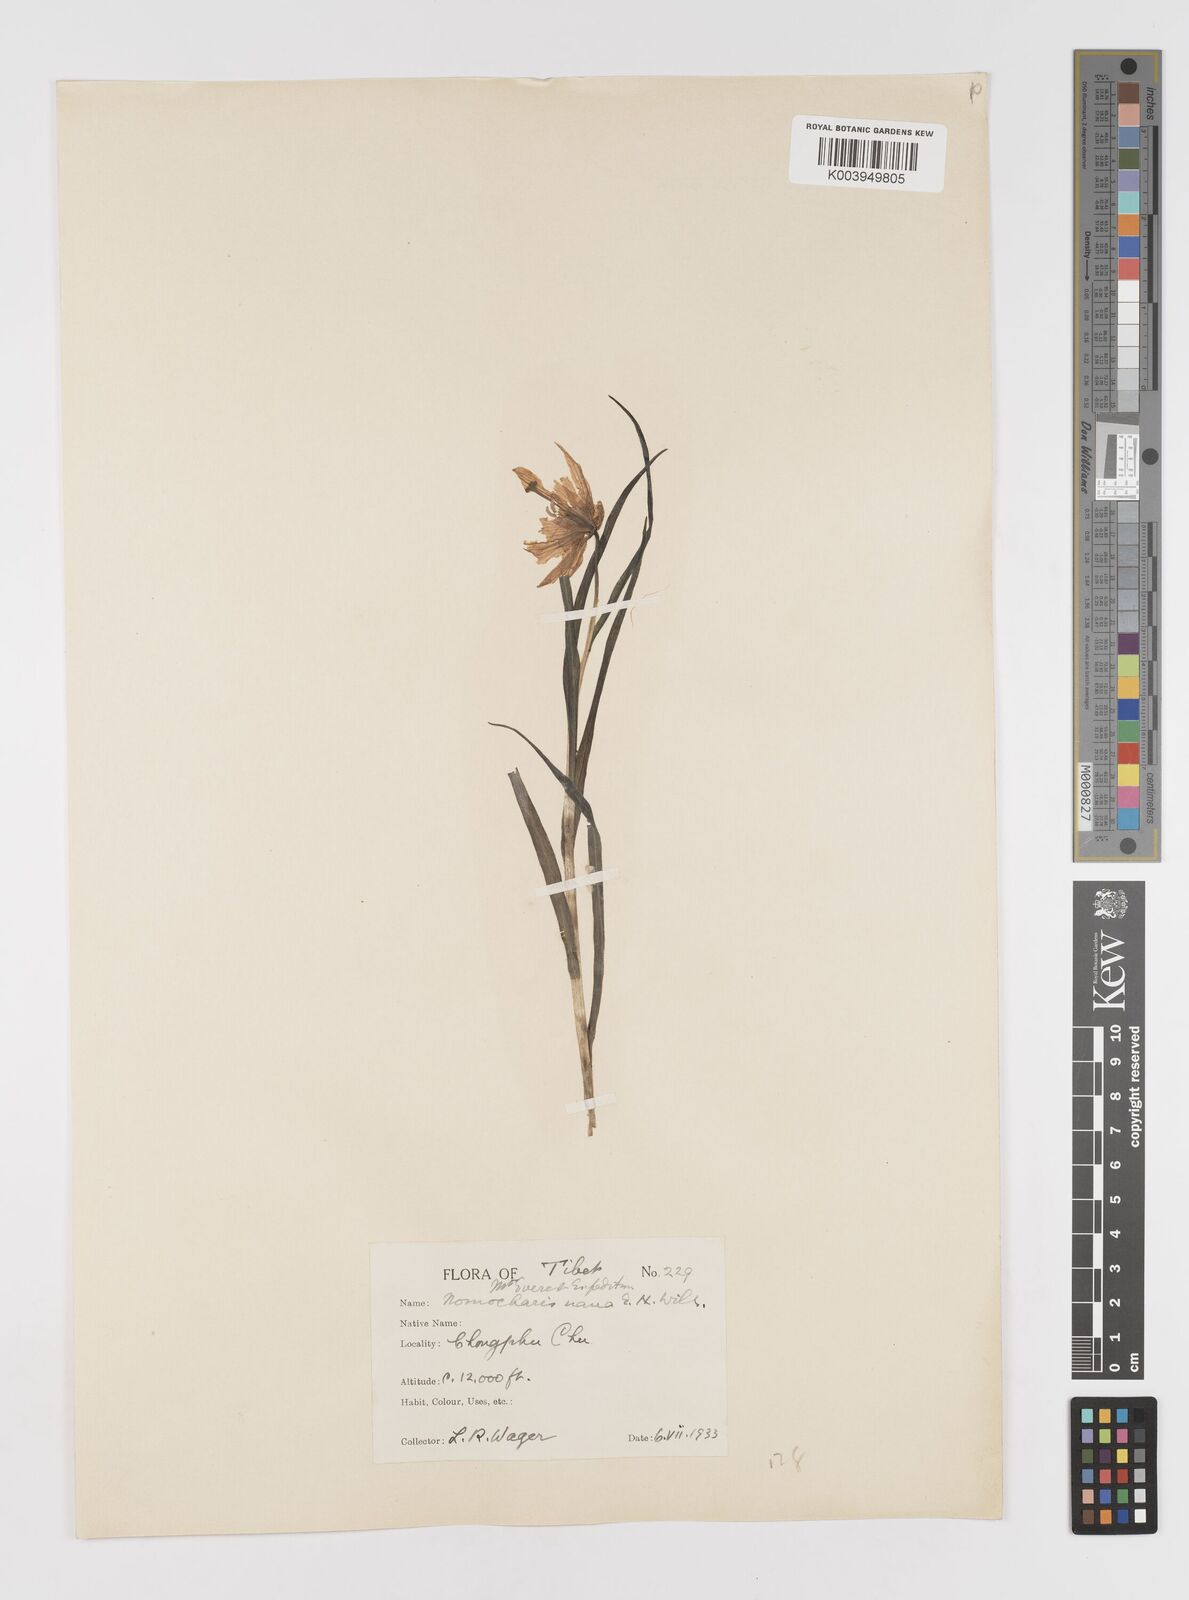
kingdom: Plantae
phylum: Tracheophyta
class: Liliopsida
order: Liliales
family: Liliaceae
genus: Lilium
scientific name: Lilium nanum
